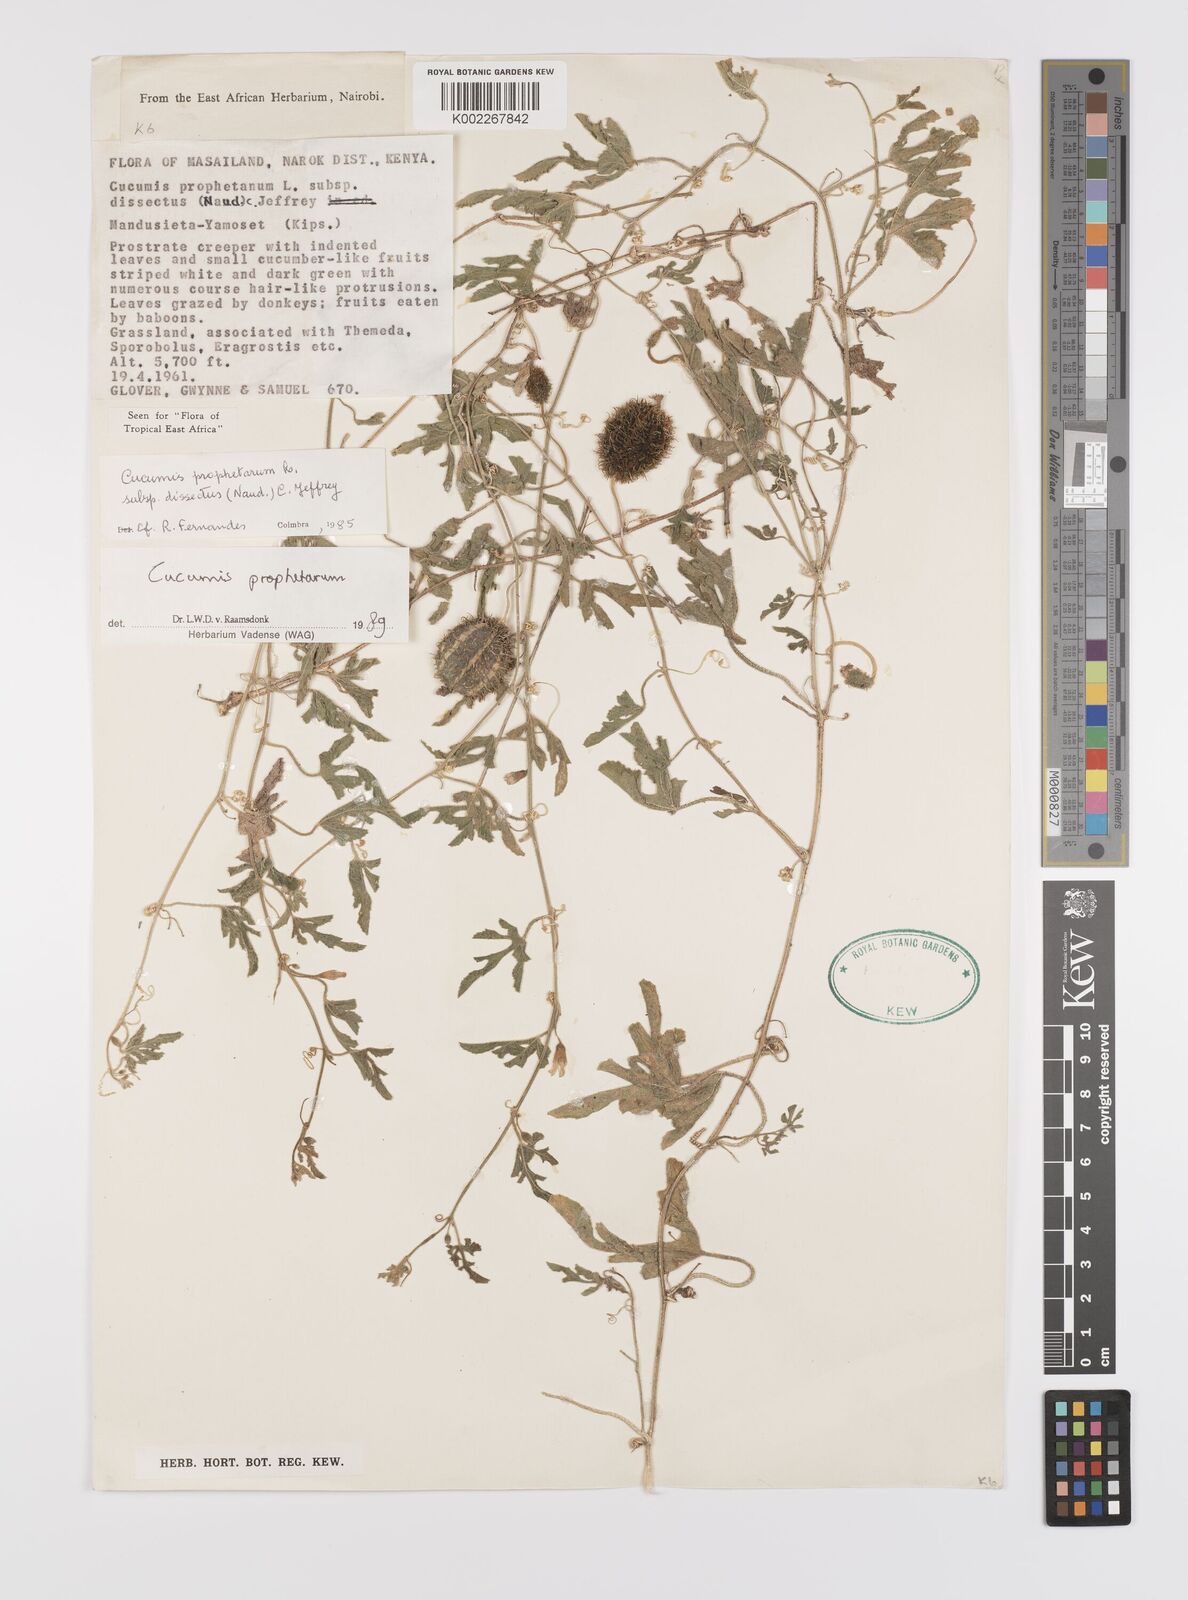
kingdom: Plantae
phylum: Tracheophyta
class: Magnoliopsida
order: Cucurbitales
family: Cucurbitaceae
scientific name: Cucurbitaceae
